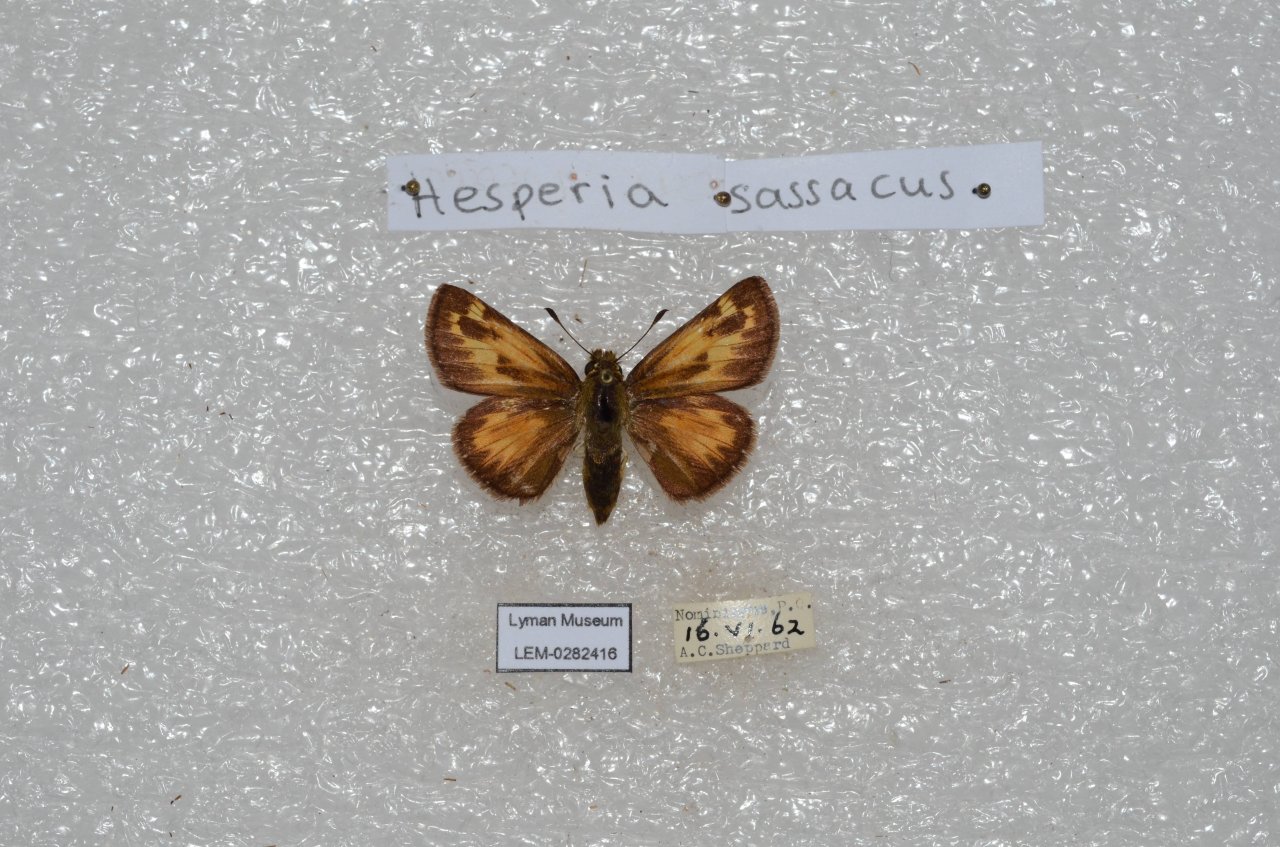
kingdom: Animalia
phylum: Arthropoda
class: Insecta
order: Lepidoptera
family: Hesperiidae
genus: Hesperia
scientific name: Hesperia sassacus
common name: Sassacus Skipper
